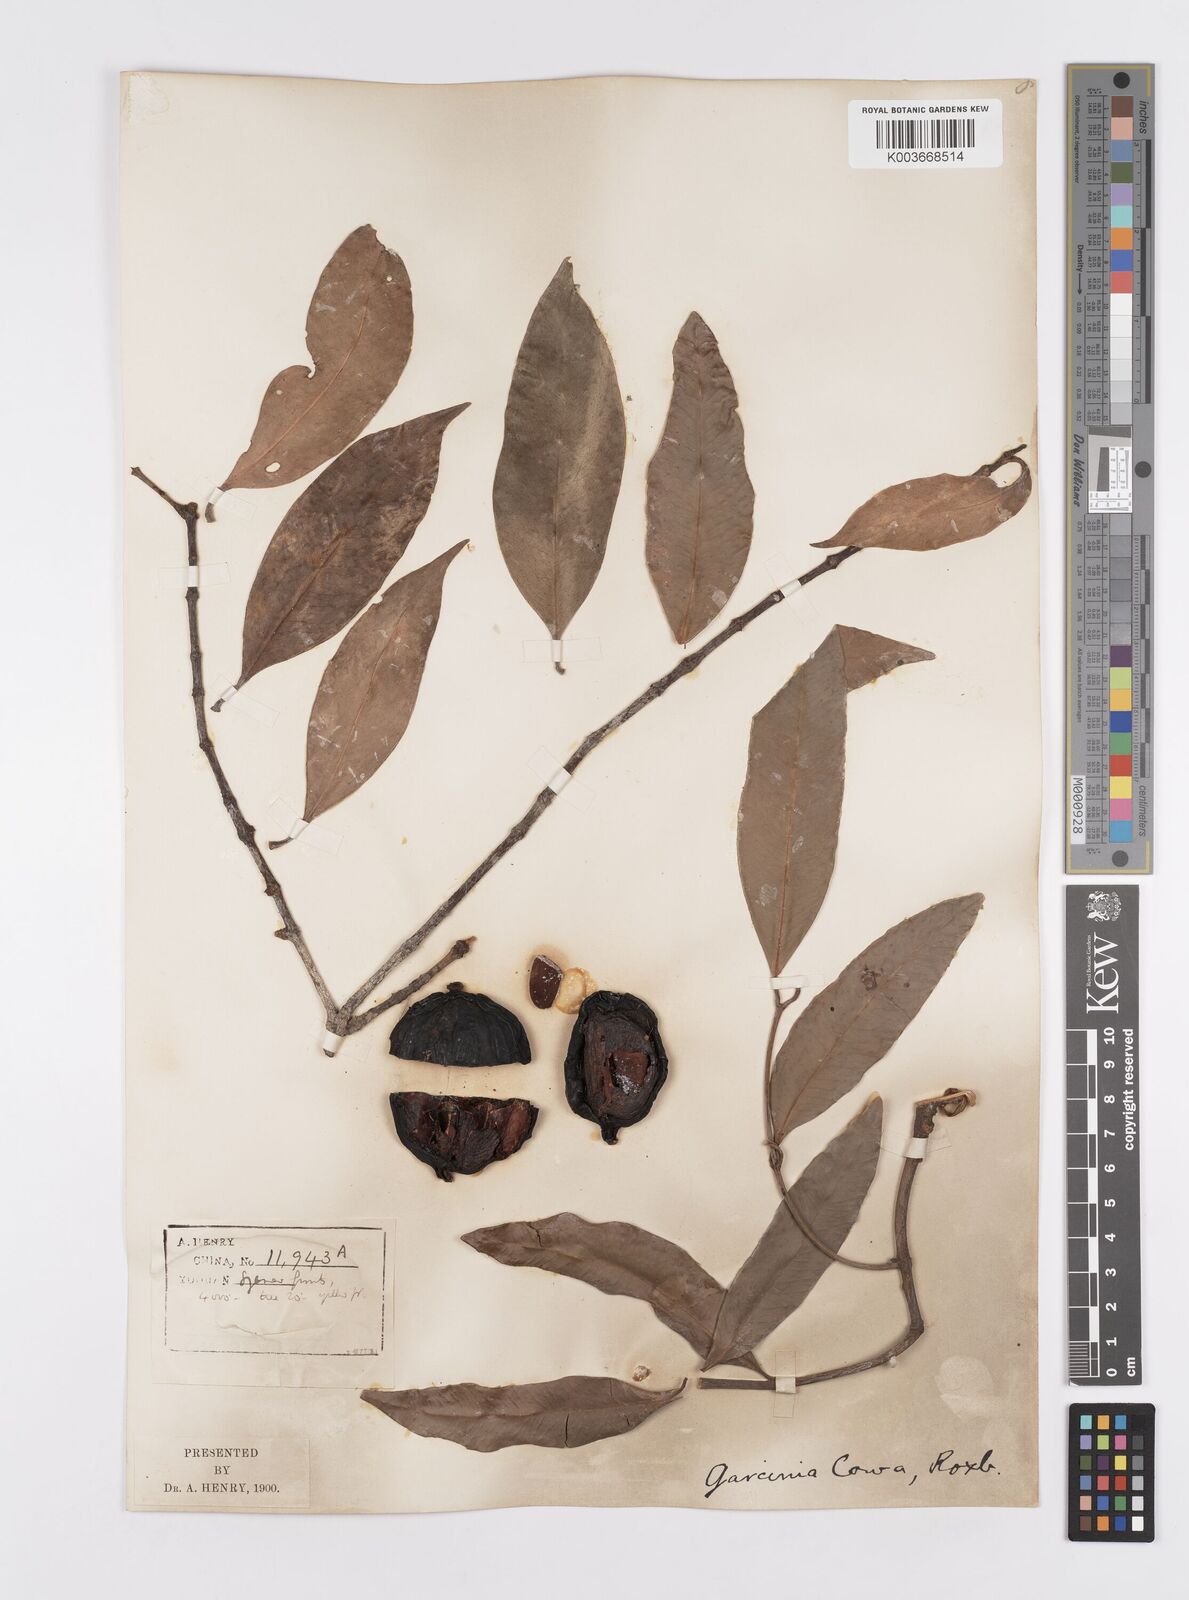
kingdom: Plantae
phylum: Tracheophyta
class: Magnoliopsida
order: Malpighiales
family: Clusiaceae
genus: Garcinia
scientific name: Garcinia cowa
